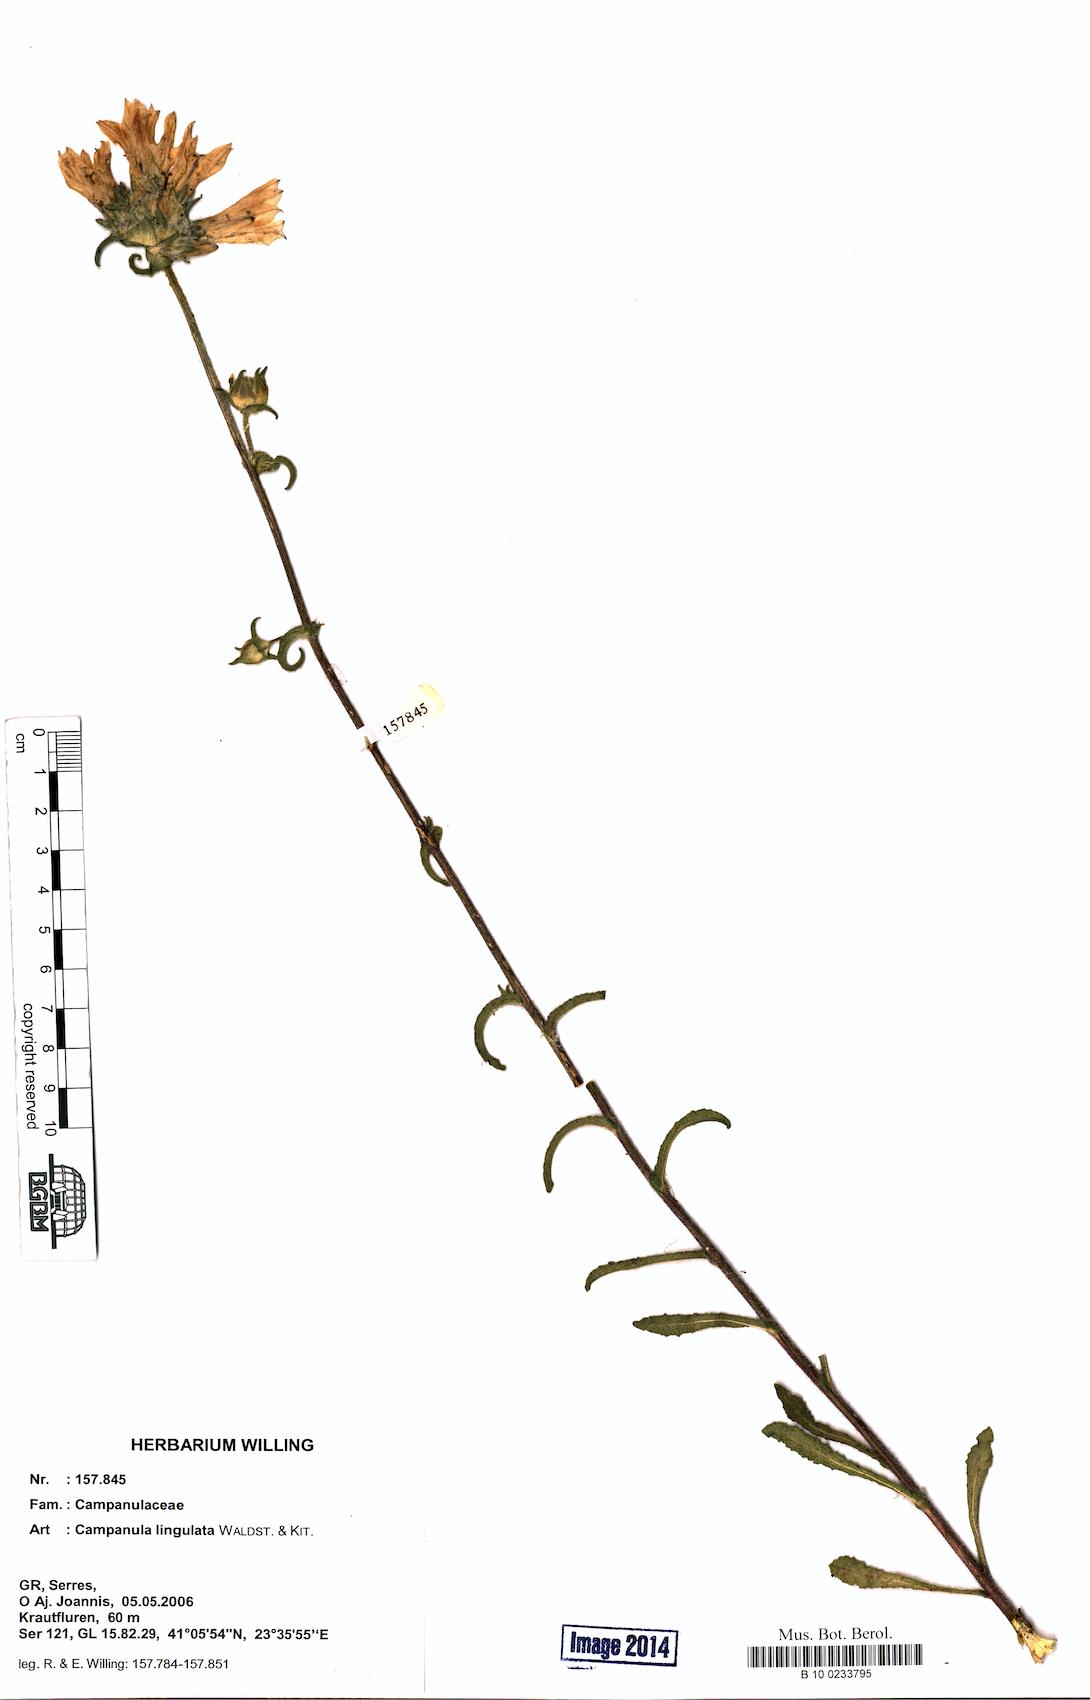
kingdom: Plantae
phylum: Tracheophyta
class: Magnoliopsida
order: Asterales
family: Campanulaceae
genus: Campanula
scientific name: Campanula lingulata
